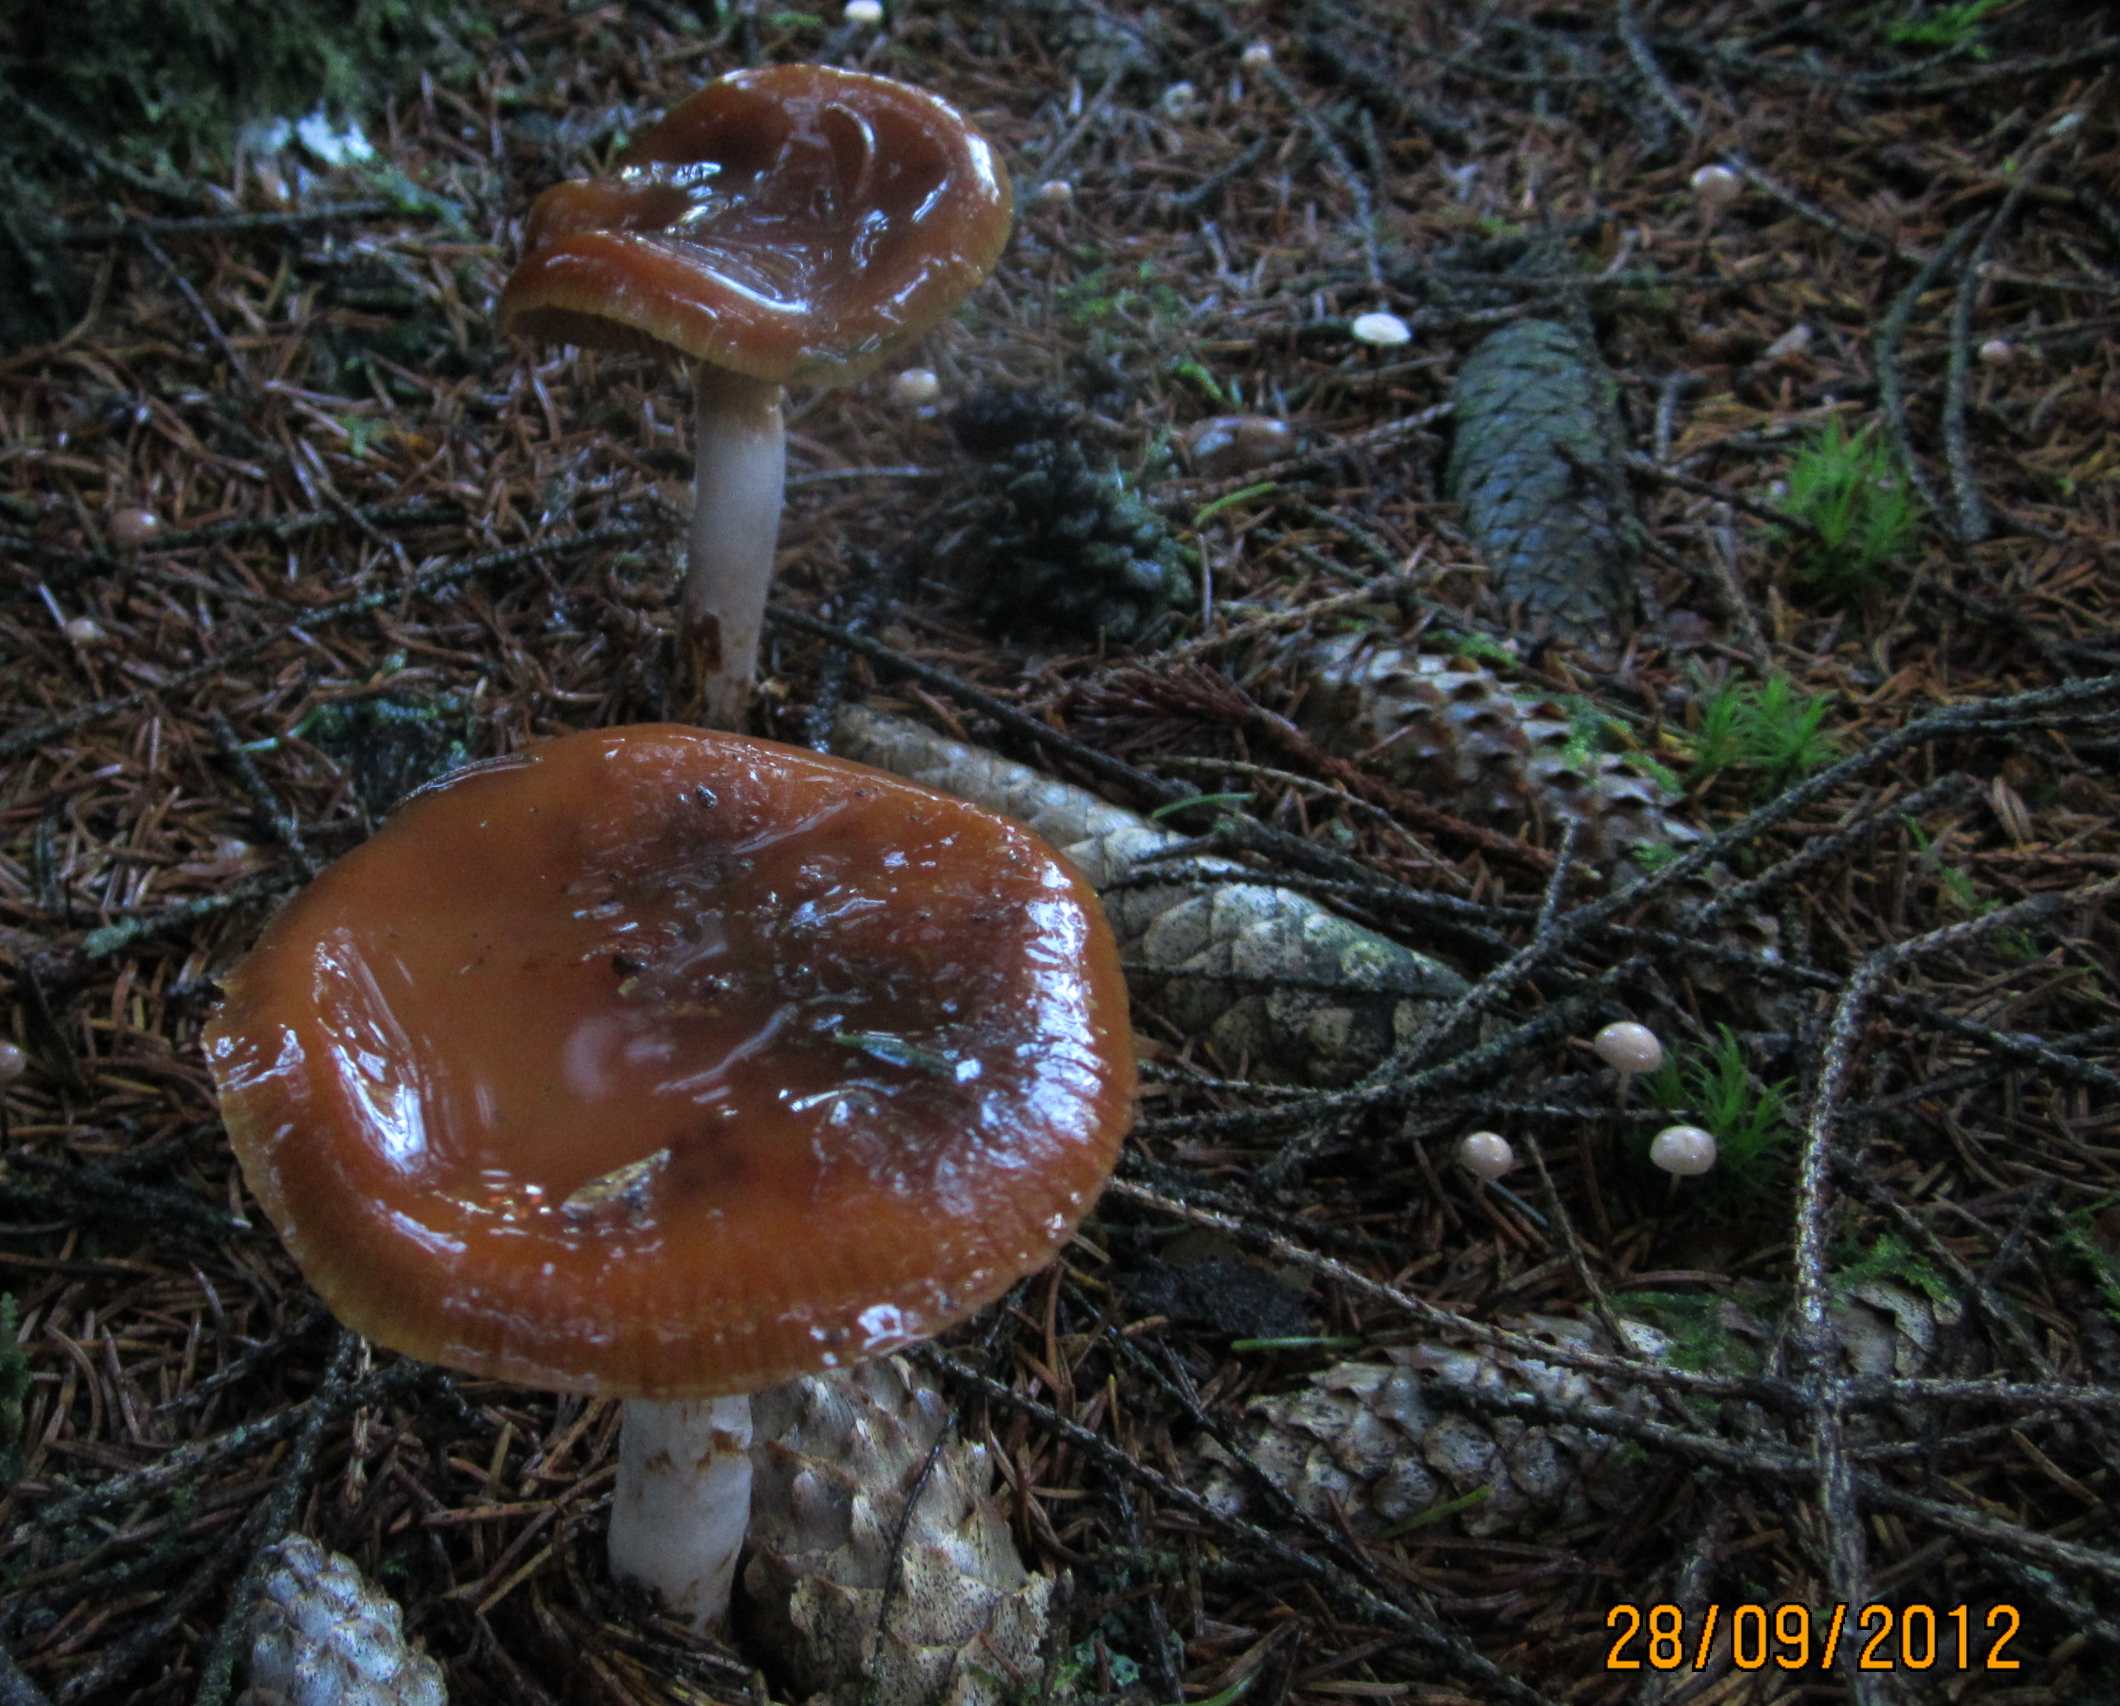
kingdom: Fungi
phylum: Basidiomycota
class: Agaricomycetes
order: Agaricales
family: Cortinariaceae
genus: Cortinarius
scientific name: Cortinarius collinitus
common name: spættet slørhat
